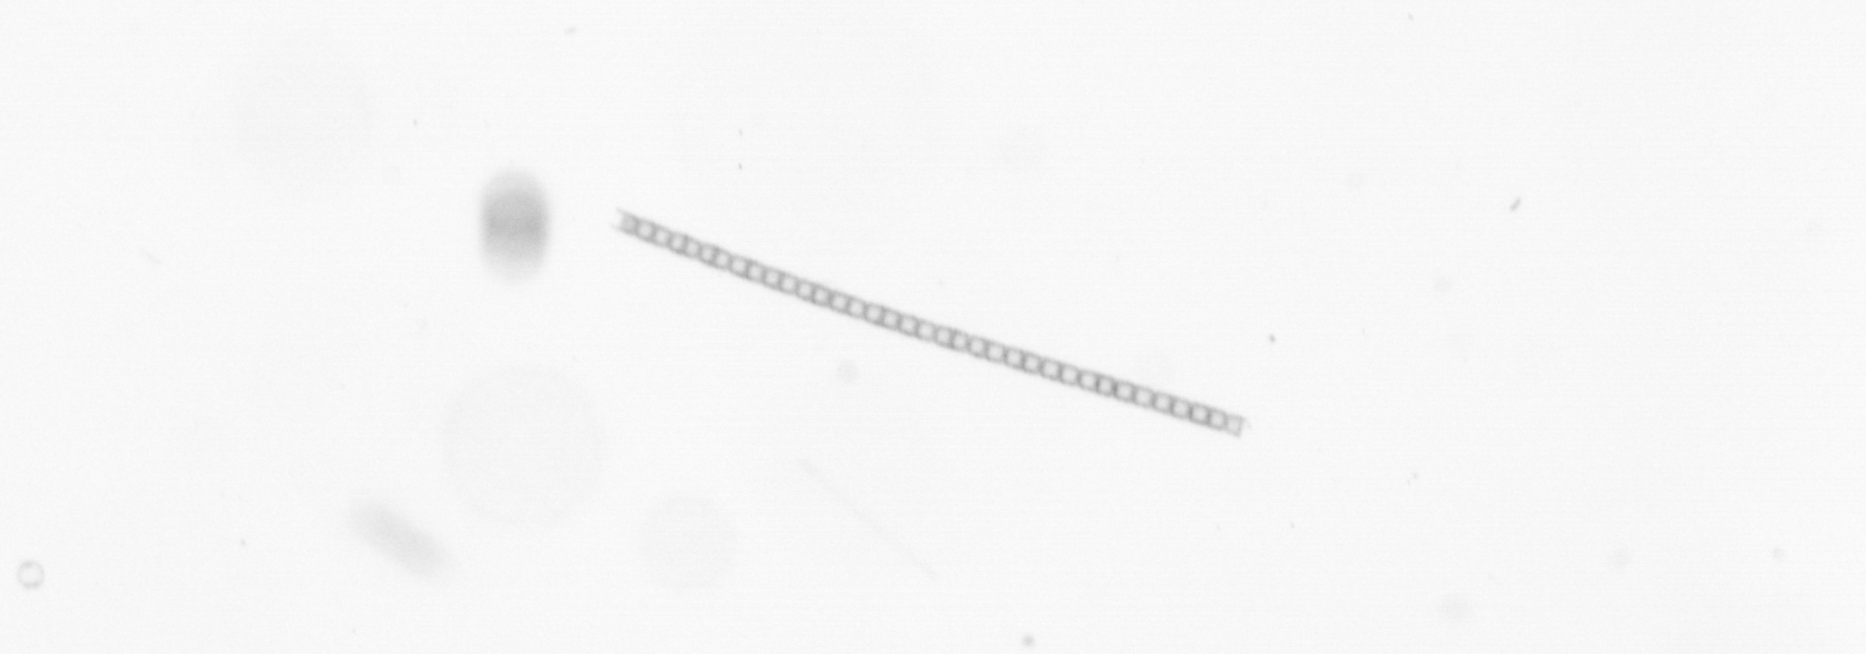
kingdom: Chromista
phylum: Ochrophyta
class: Bacillariophyceae
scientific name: Bacillariophyceae
